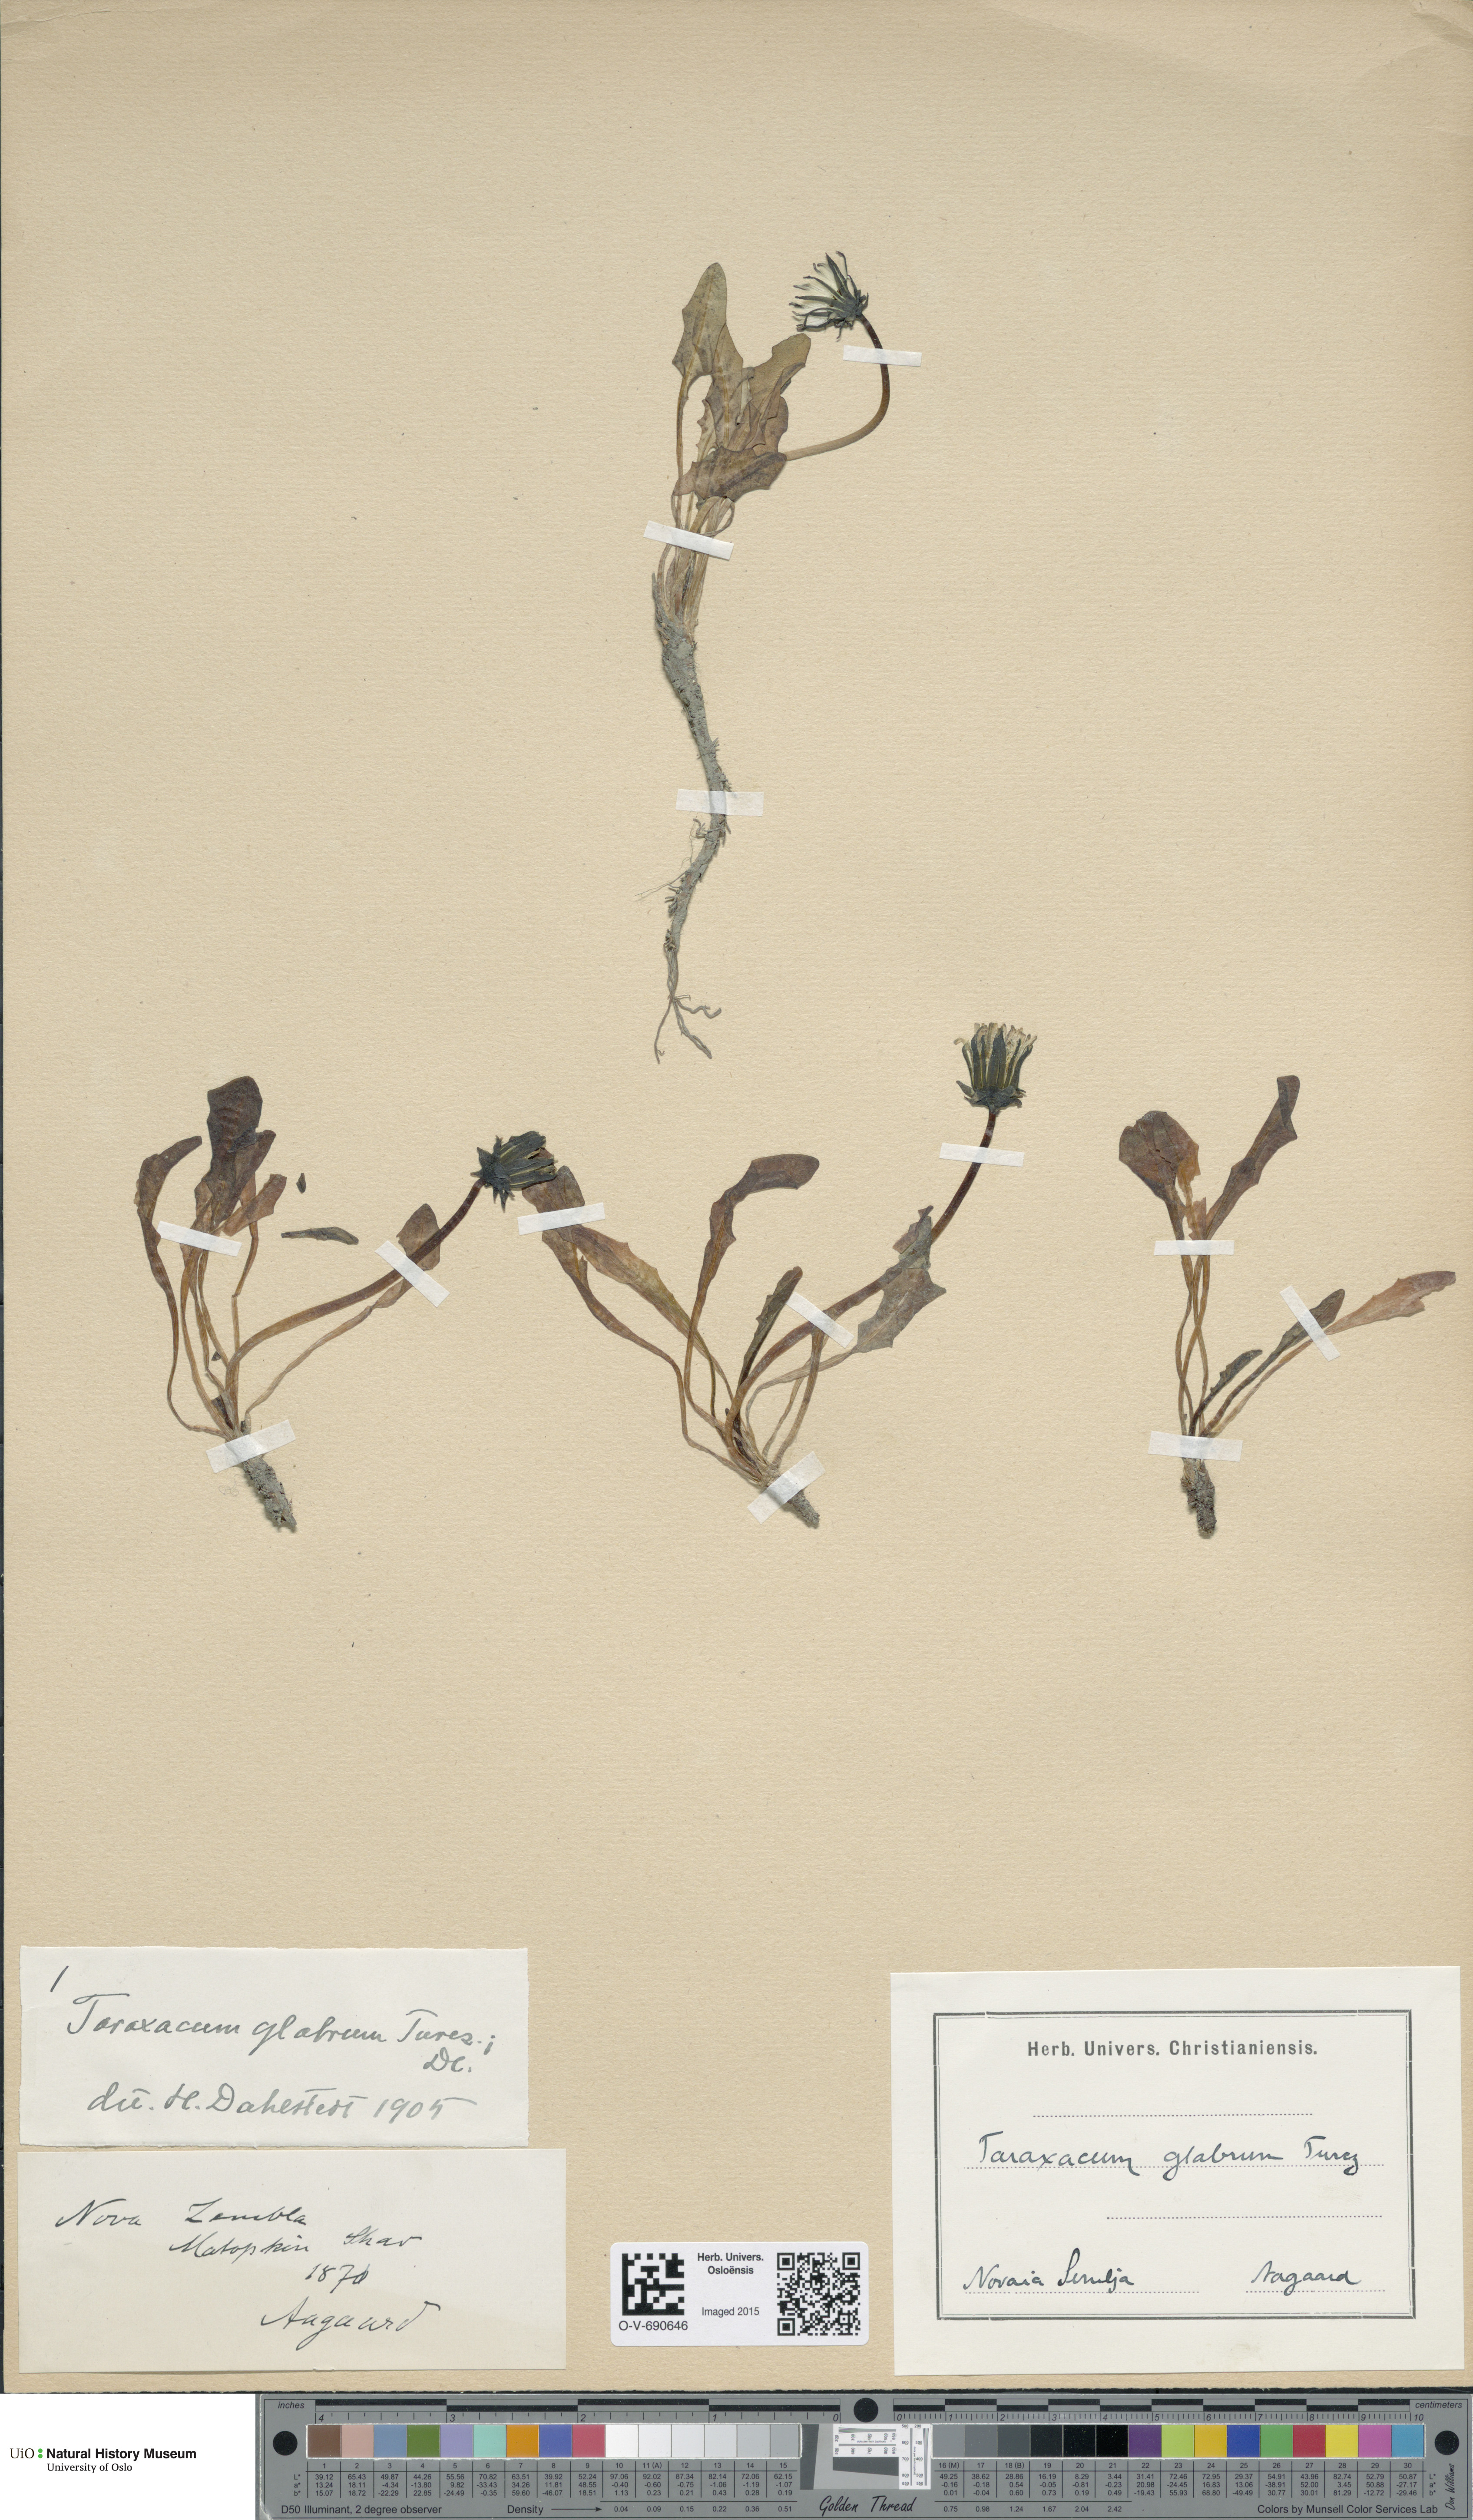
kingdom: Plantae
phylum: Tracheophyta
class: Magnoliopsida
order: Asterales
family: Asteraceae
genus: Taraxacum
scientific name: Taraxacum glabrum
